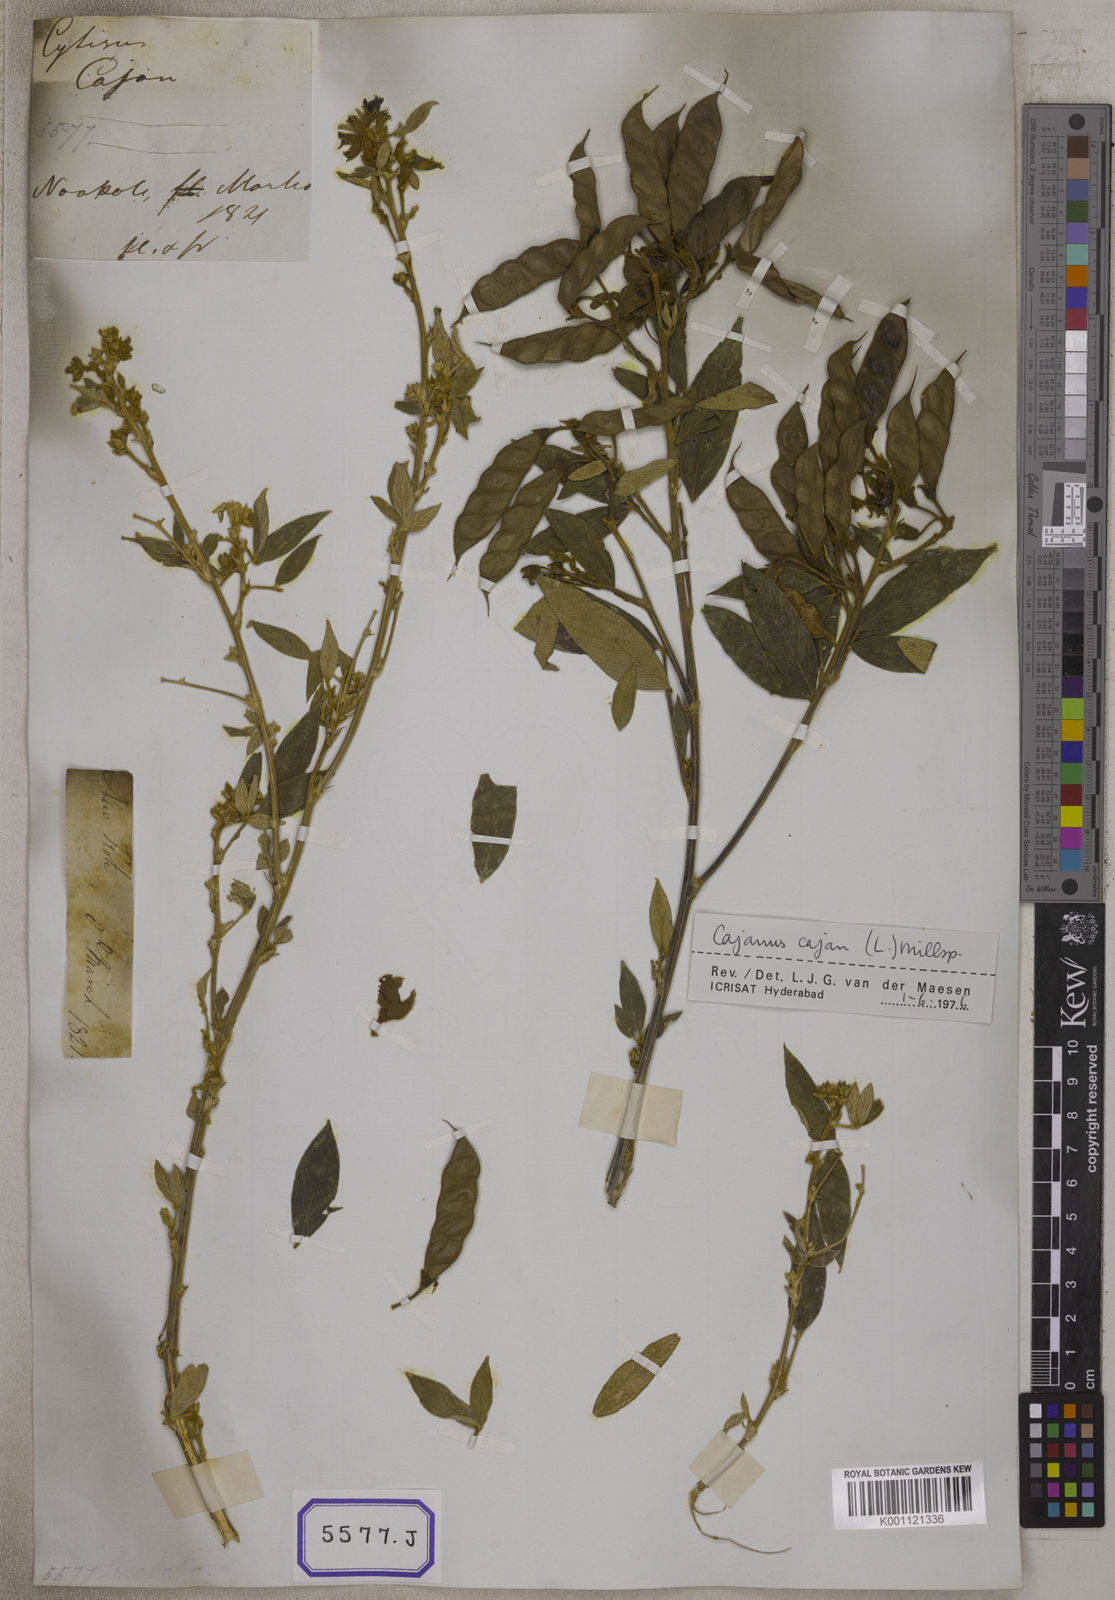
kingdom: Plantae
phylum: Tracheophyta
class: Magnoliopsida
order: Fabales
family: Fabaceae
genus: Cajanus
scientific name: Cajanus cajan
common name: Pigeonpea
